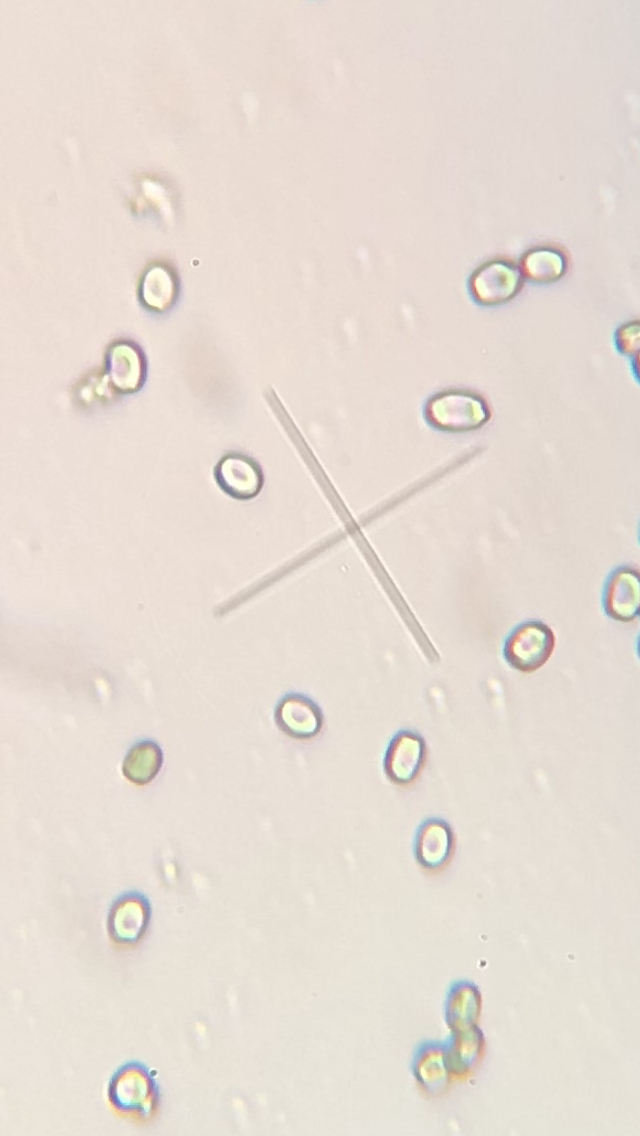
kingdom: Fungi
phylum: Ascomycota
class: Sordariomycetes
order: Hypocreales
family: Hypocreaceae
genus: Trichoderma
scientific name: Trichoderma pulvinatum
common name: snyltende kødkerne
